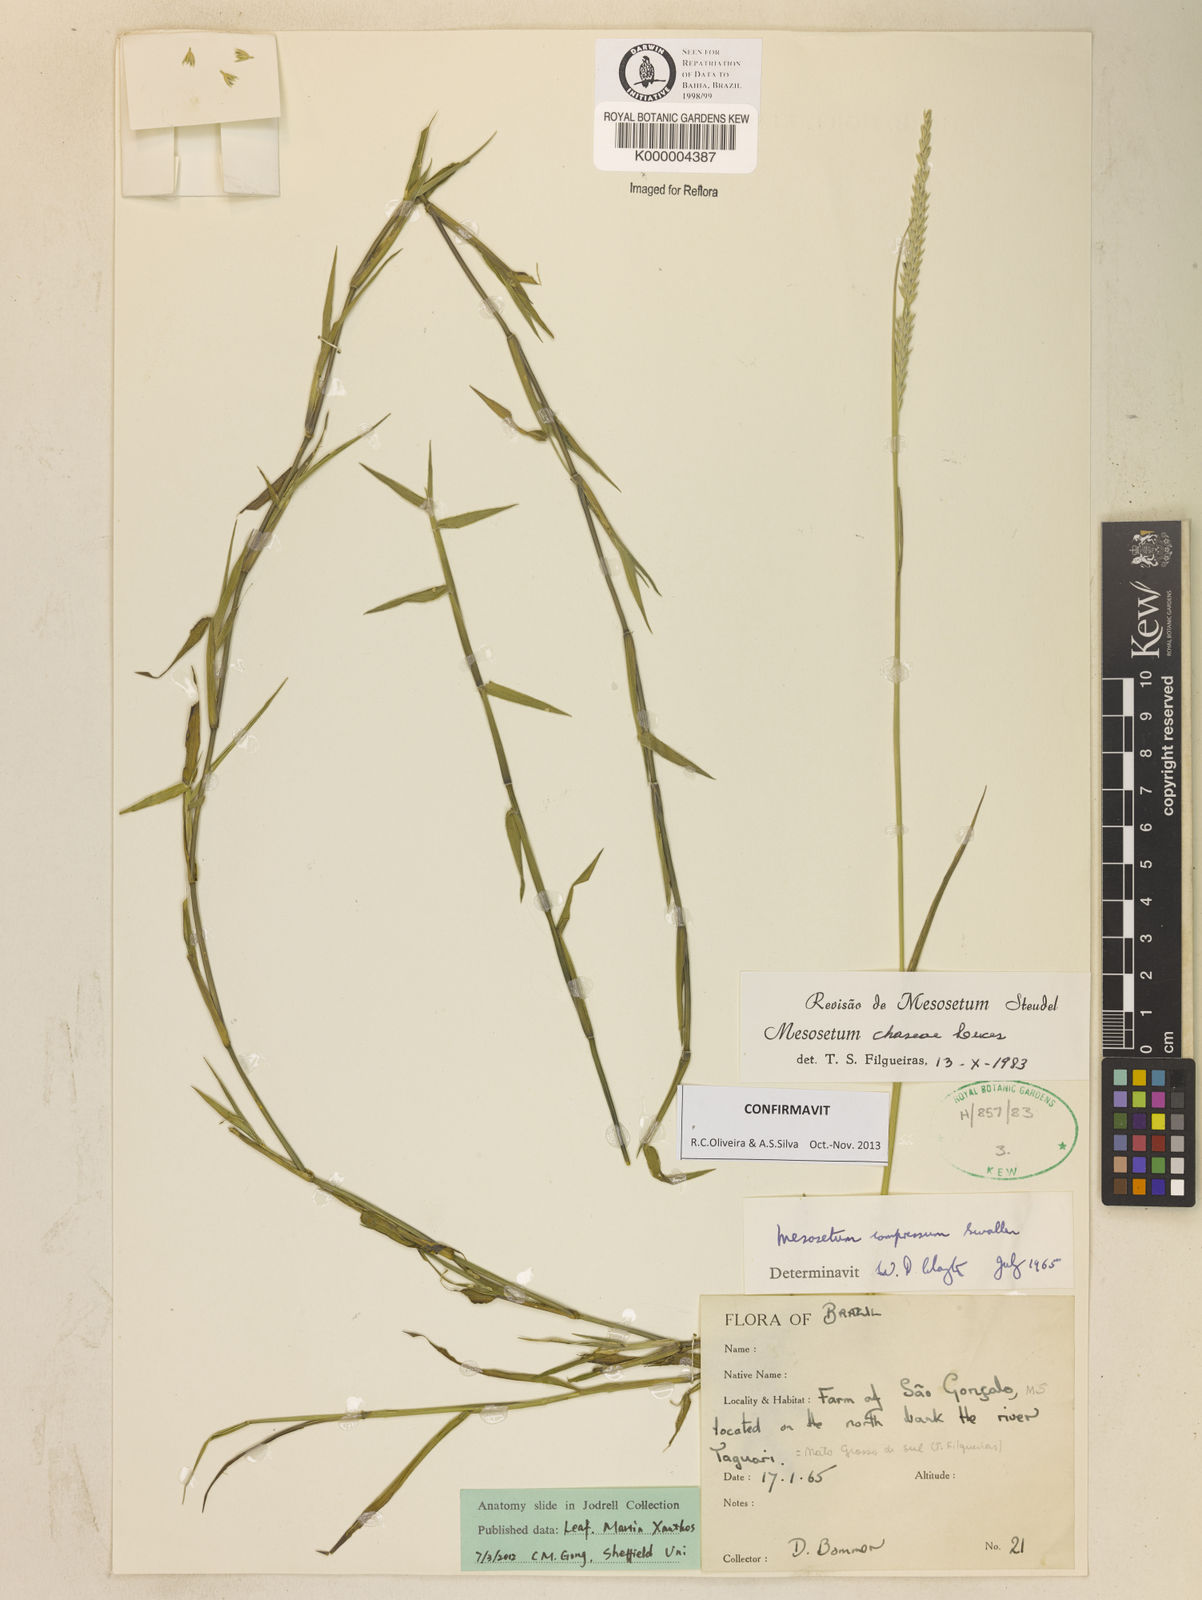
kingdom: Plantae
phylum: Tracheophyta
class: Liliopsida
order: Poales
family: Poaceae
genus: Mesosetum
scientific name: Mesosetum chaseae
